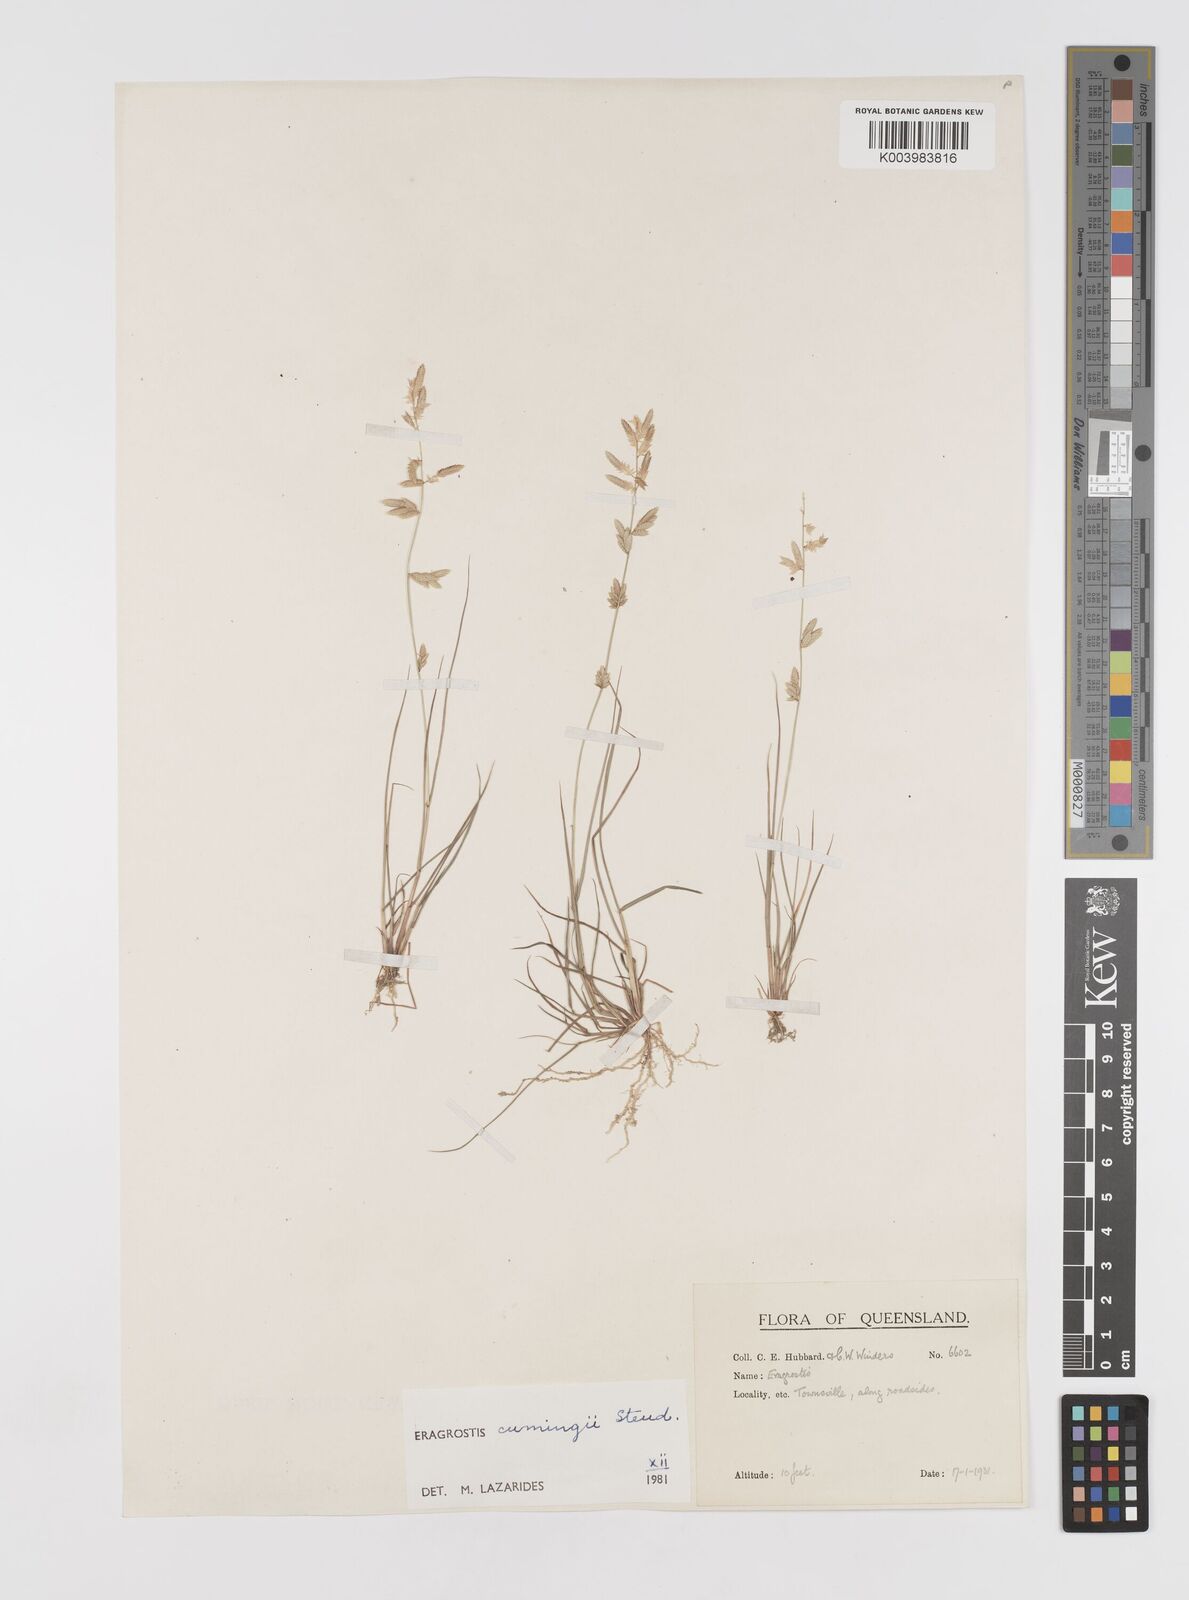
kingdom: Plantae
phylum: Tracheophyta
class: Liliopsida
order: Poales
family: Poaceae
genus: Eragrostis
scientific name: Eragrostis cumingii
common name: Cuming's lovegrass
